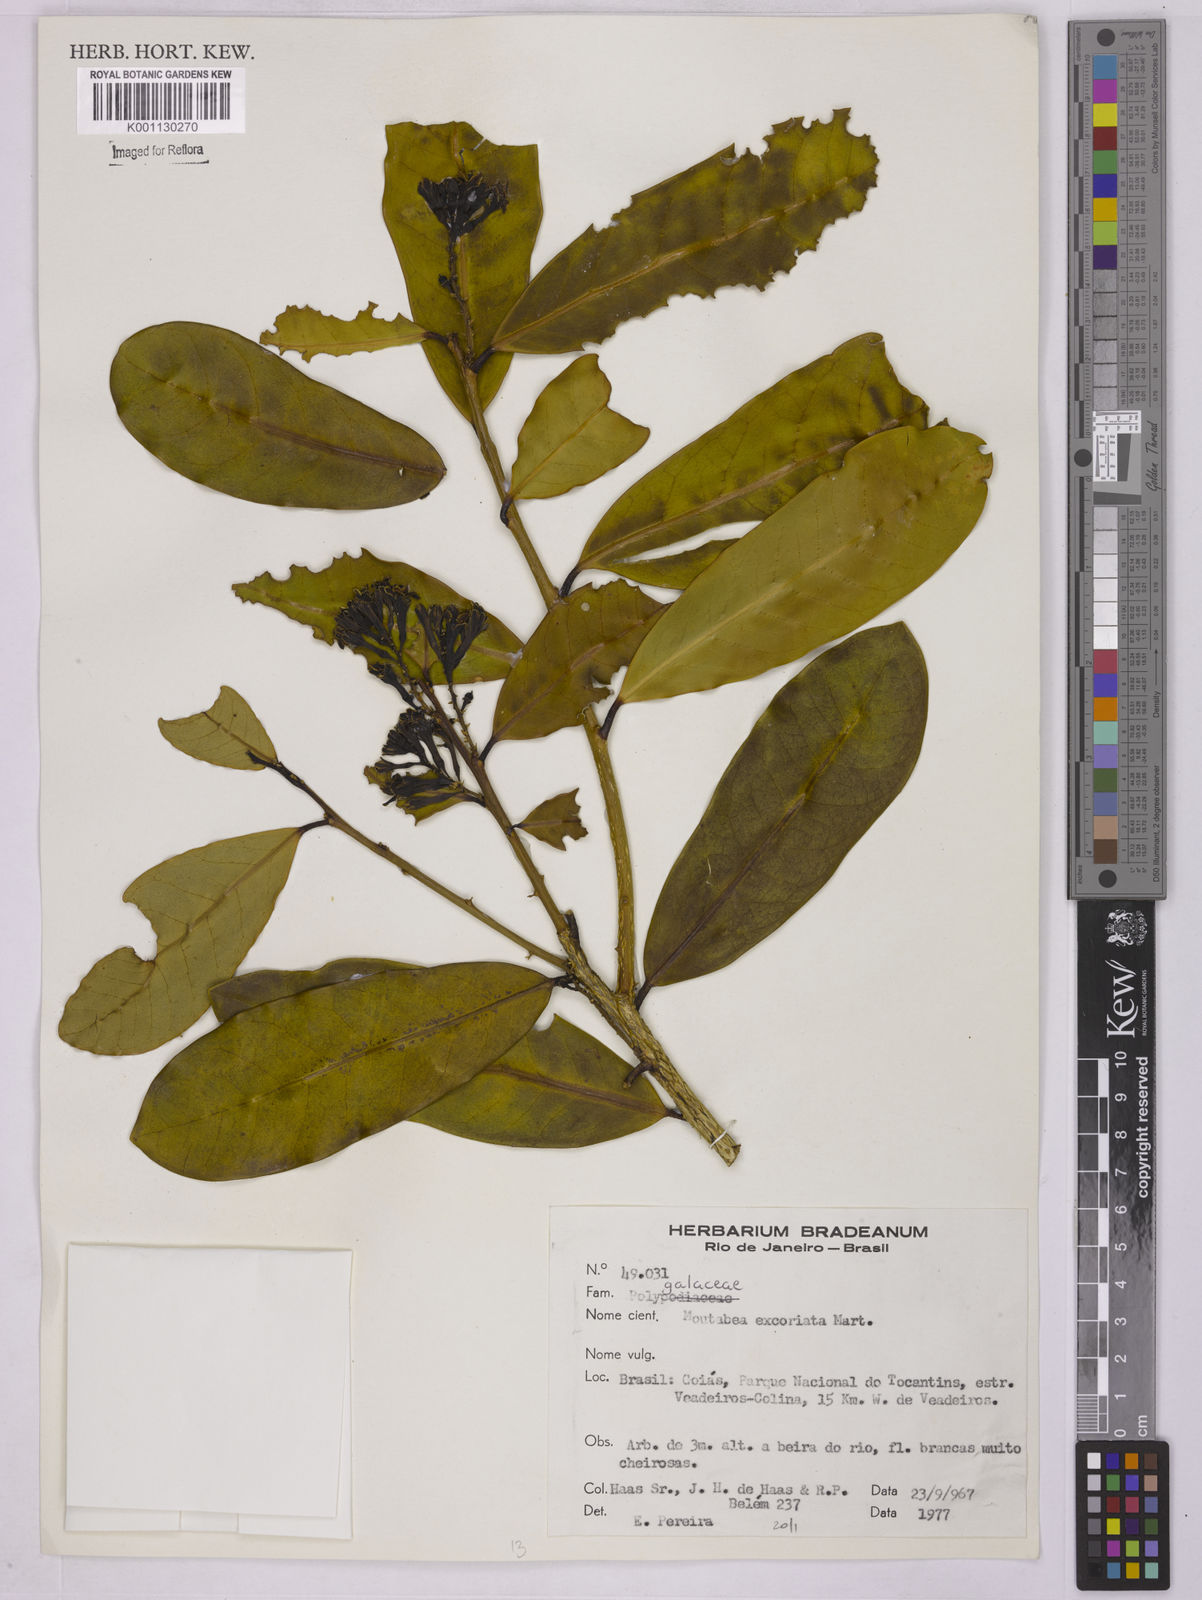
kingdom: Plantae
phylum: Tracheophyta
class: Magnoliopsida
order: Fabales
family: Polygalaceae
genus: Moutabea
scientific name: Moutabea excoriata
